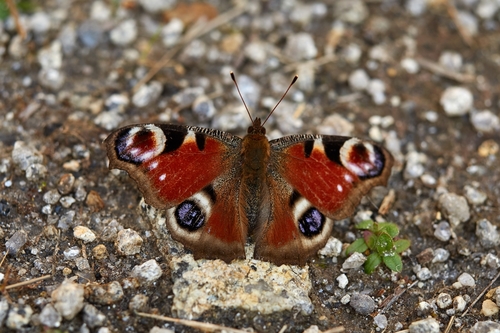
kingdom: Animalia
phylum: Arthropoda
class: Insecta
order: Lepidoptera
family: Nymphalidae
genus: Aglais
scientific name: Aglais io
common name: Peacock
